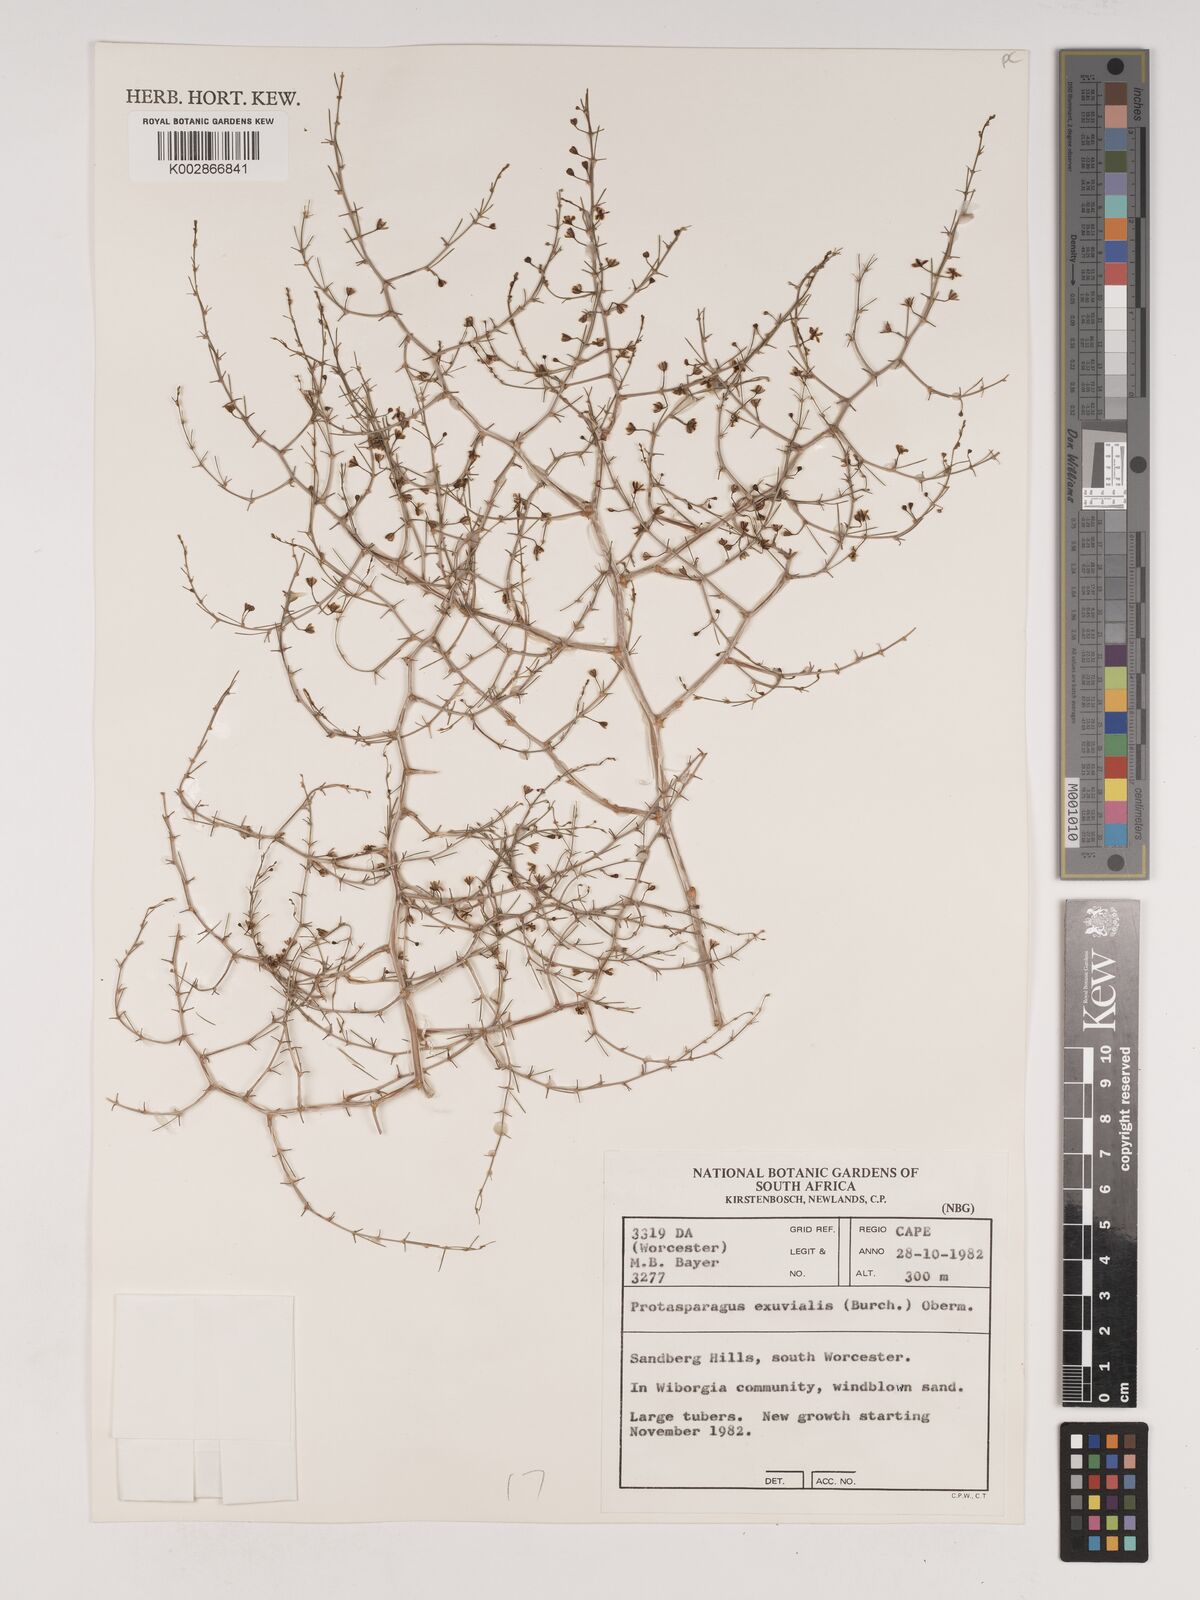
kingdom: Plantae
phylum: Tracheophyta
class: Liliopsida
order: Asparagales
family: Asparagaceae
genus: Asparagus
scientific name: Asparagus exuvialis
